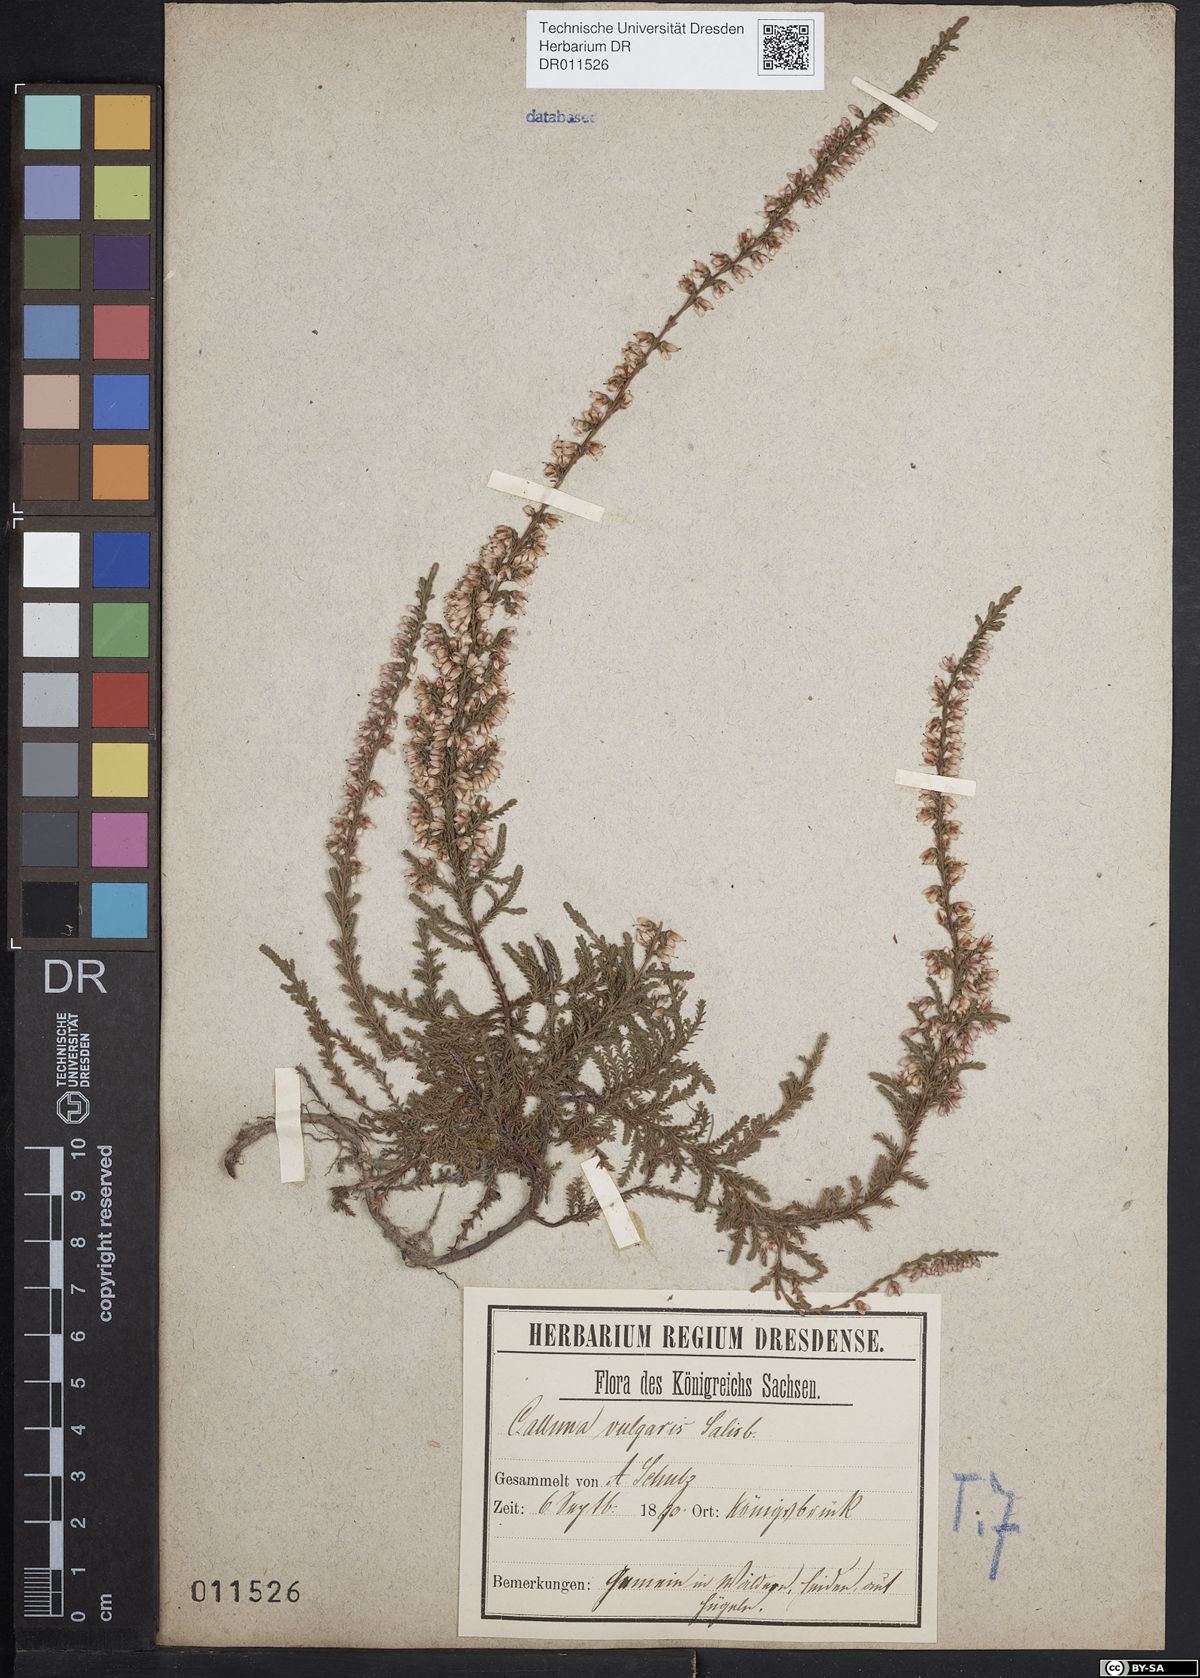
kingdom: Plantae
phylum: Tracheophyta
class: Magnoliopsida
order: Ericales
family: Ericaceae
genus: Calluna
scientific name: Calluna vulgaris
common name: Heather
